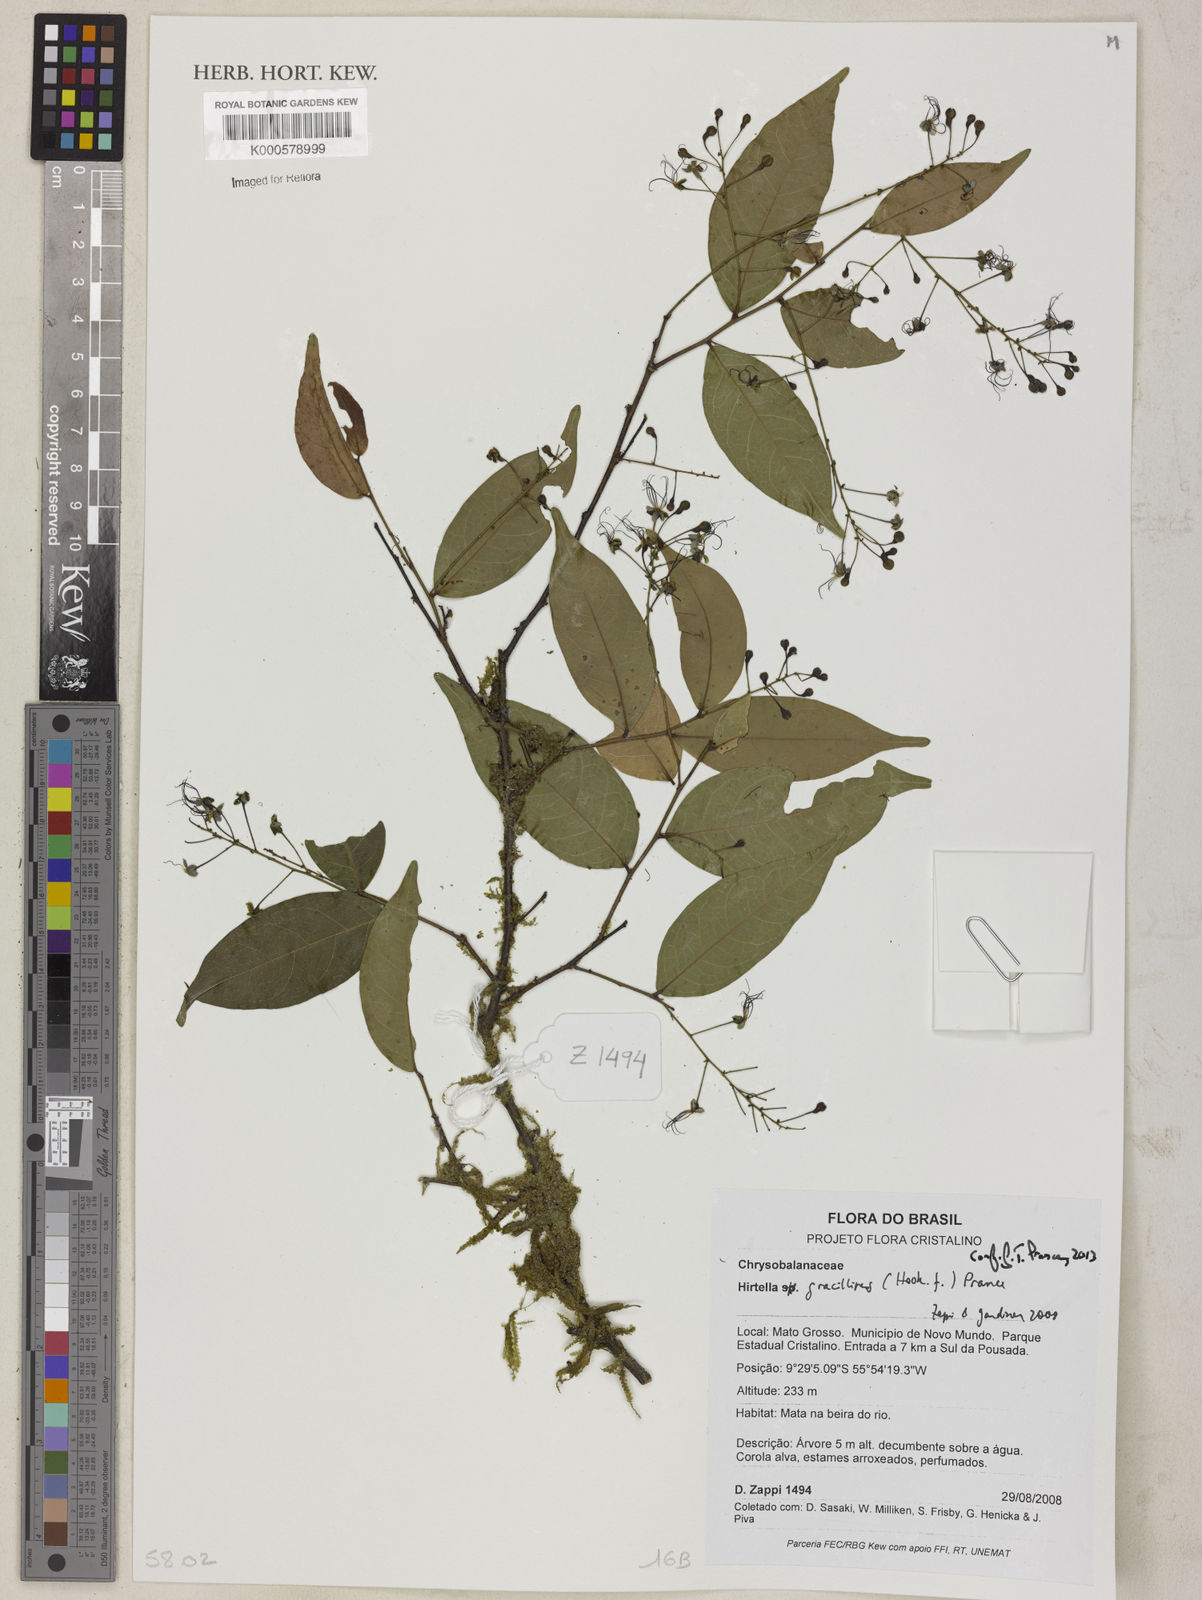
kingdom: Plantae
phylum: Tracheophyta
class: Magnoliopsida
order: Malpighiales
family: Chrysobalanaceae
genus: Hirtella
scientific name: Hirtella gracilipes
